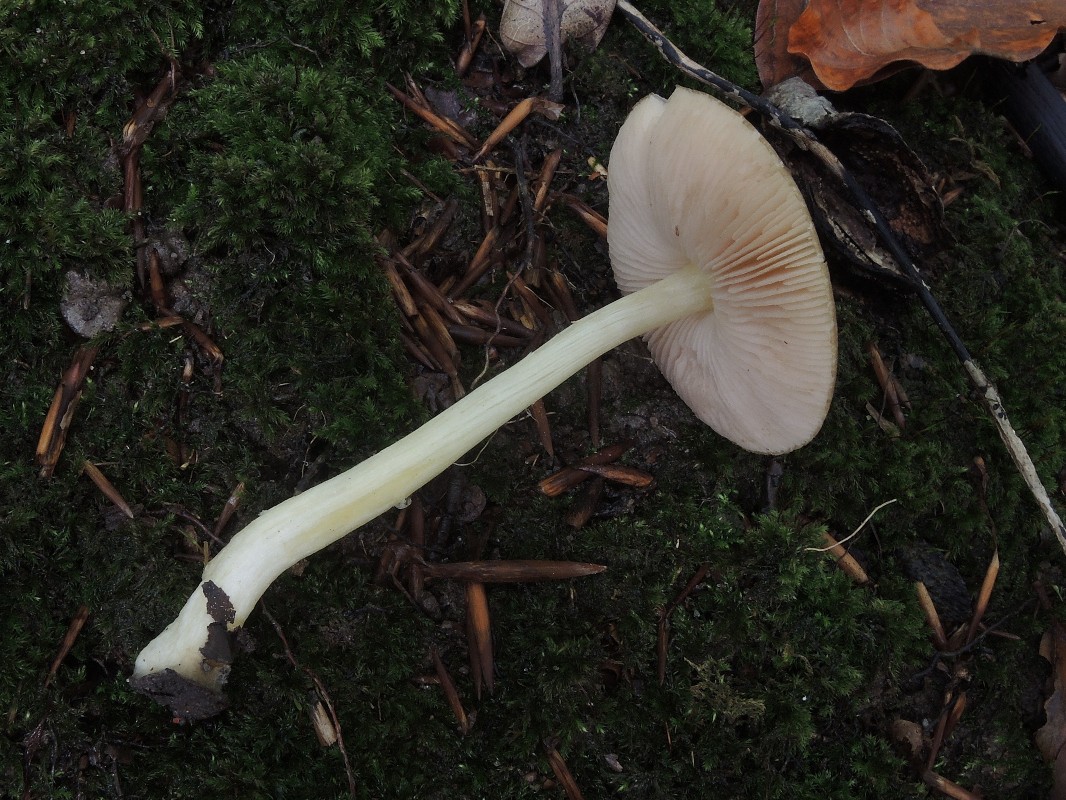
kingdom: Fungi
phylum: Basidiomycota
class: Agaricomycetes
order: Agaricales
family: Pluteaceae
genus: Pluteus
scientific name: Pluteus romellii
